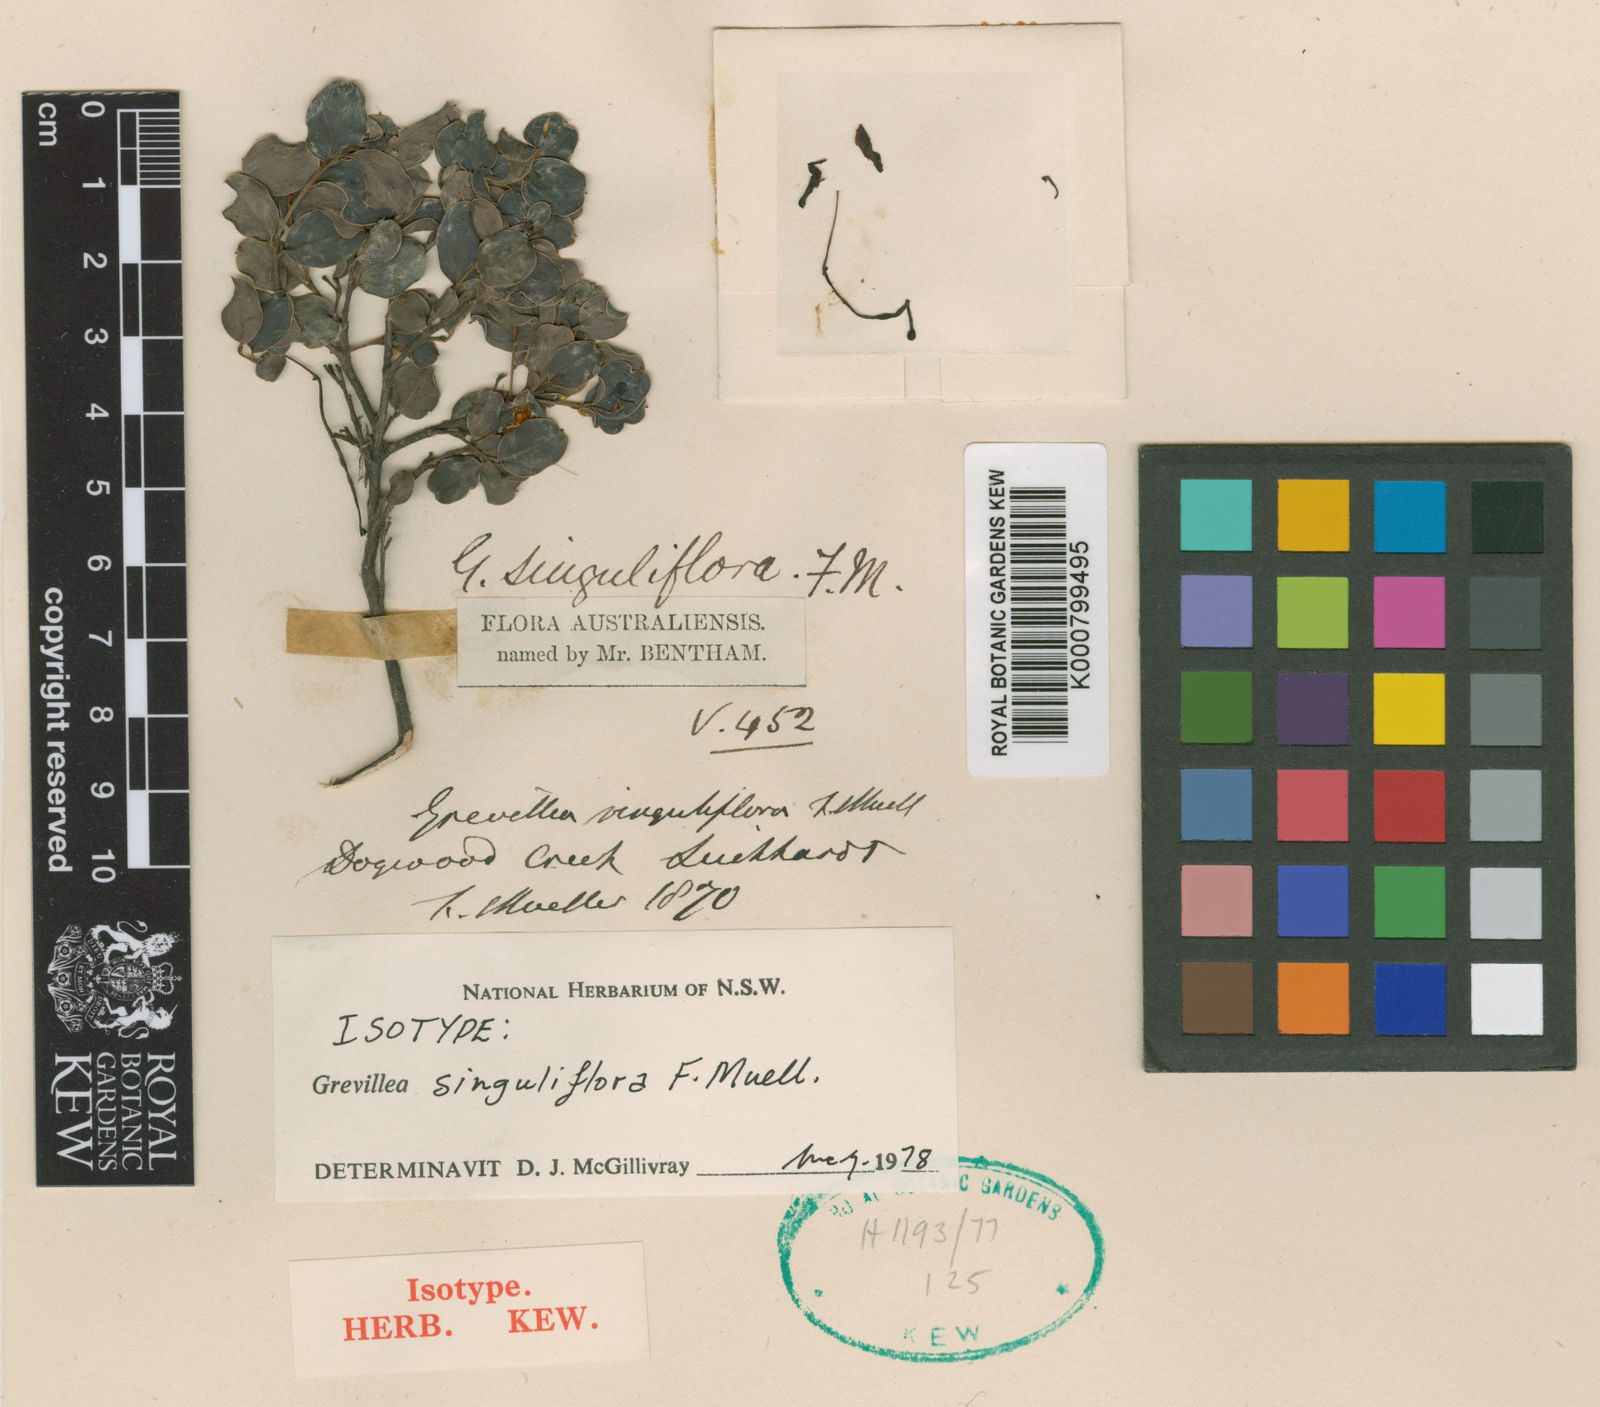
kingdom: Plantae
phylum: Tracheophyta
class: Magnoliopsida
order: Proteales
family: Proteaceae
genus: Grevillea
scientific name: Grevillea singuliflora
